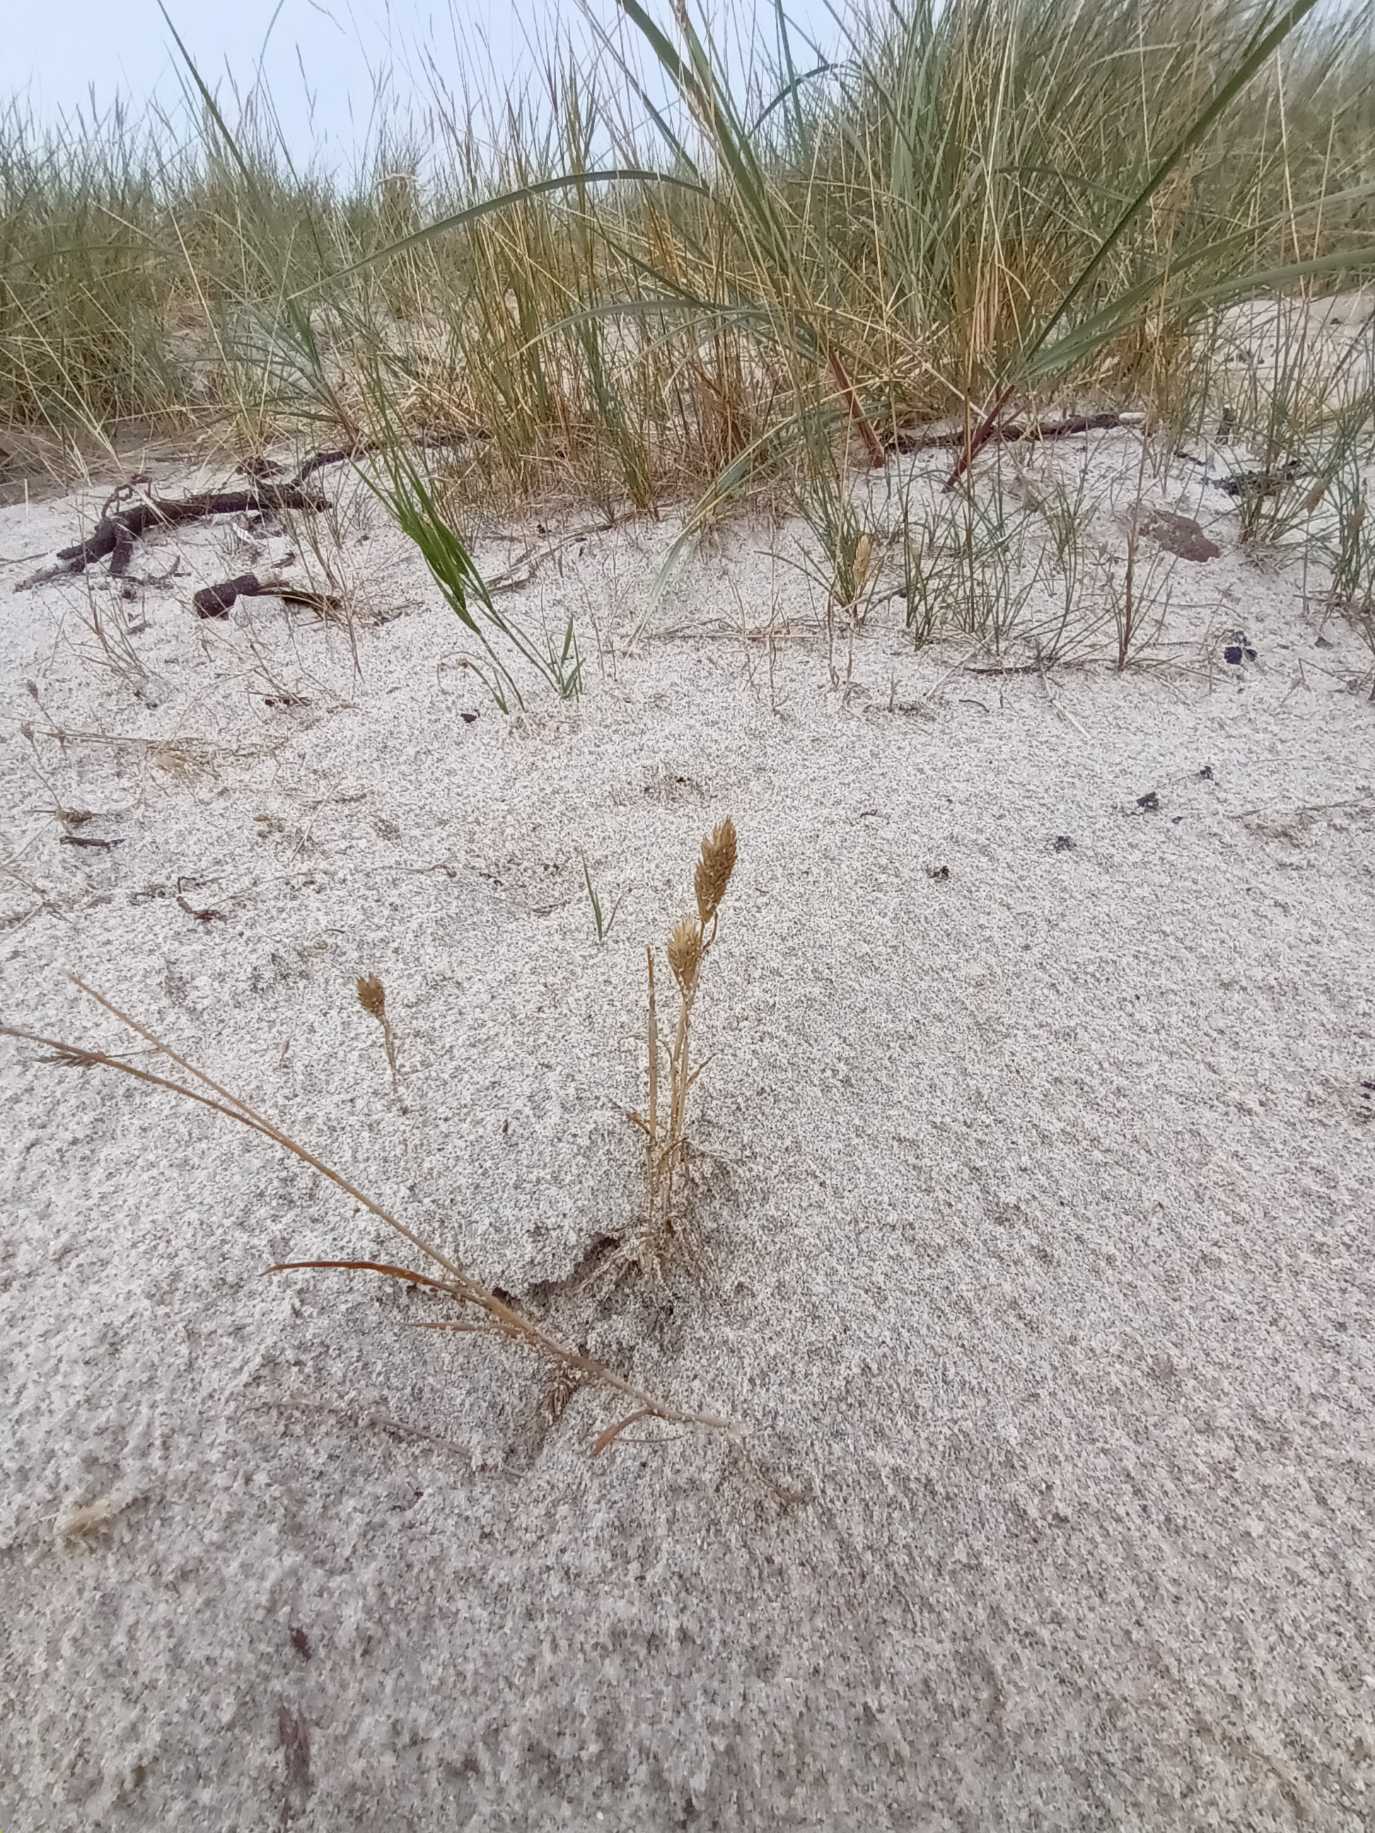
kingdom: Plantae
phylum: Tracheophyta
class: Liliopsida
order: Poales
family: Poaceae
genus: Phleum
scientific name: Phleum arenarium
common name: Sand-rottehale
